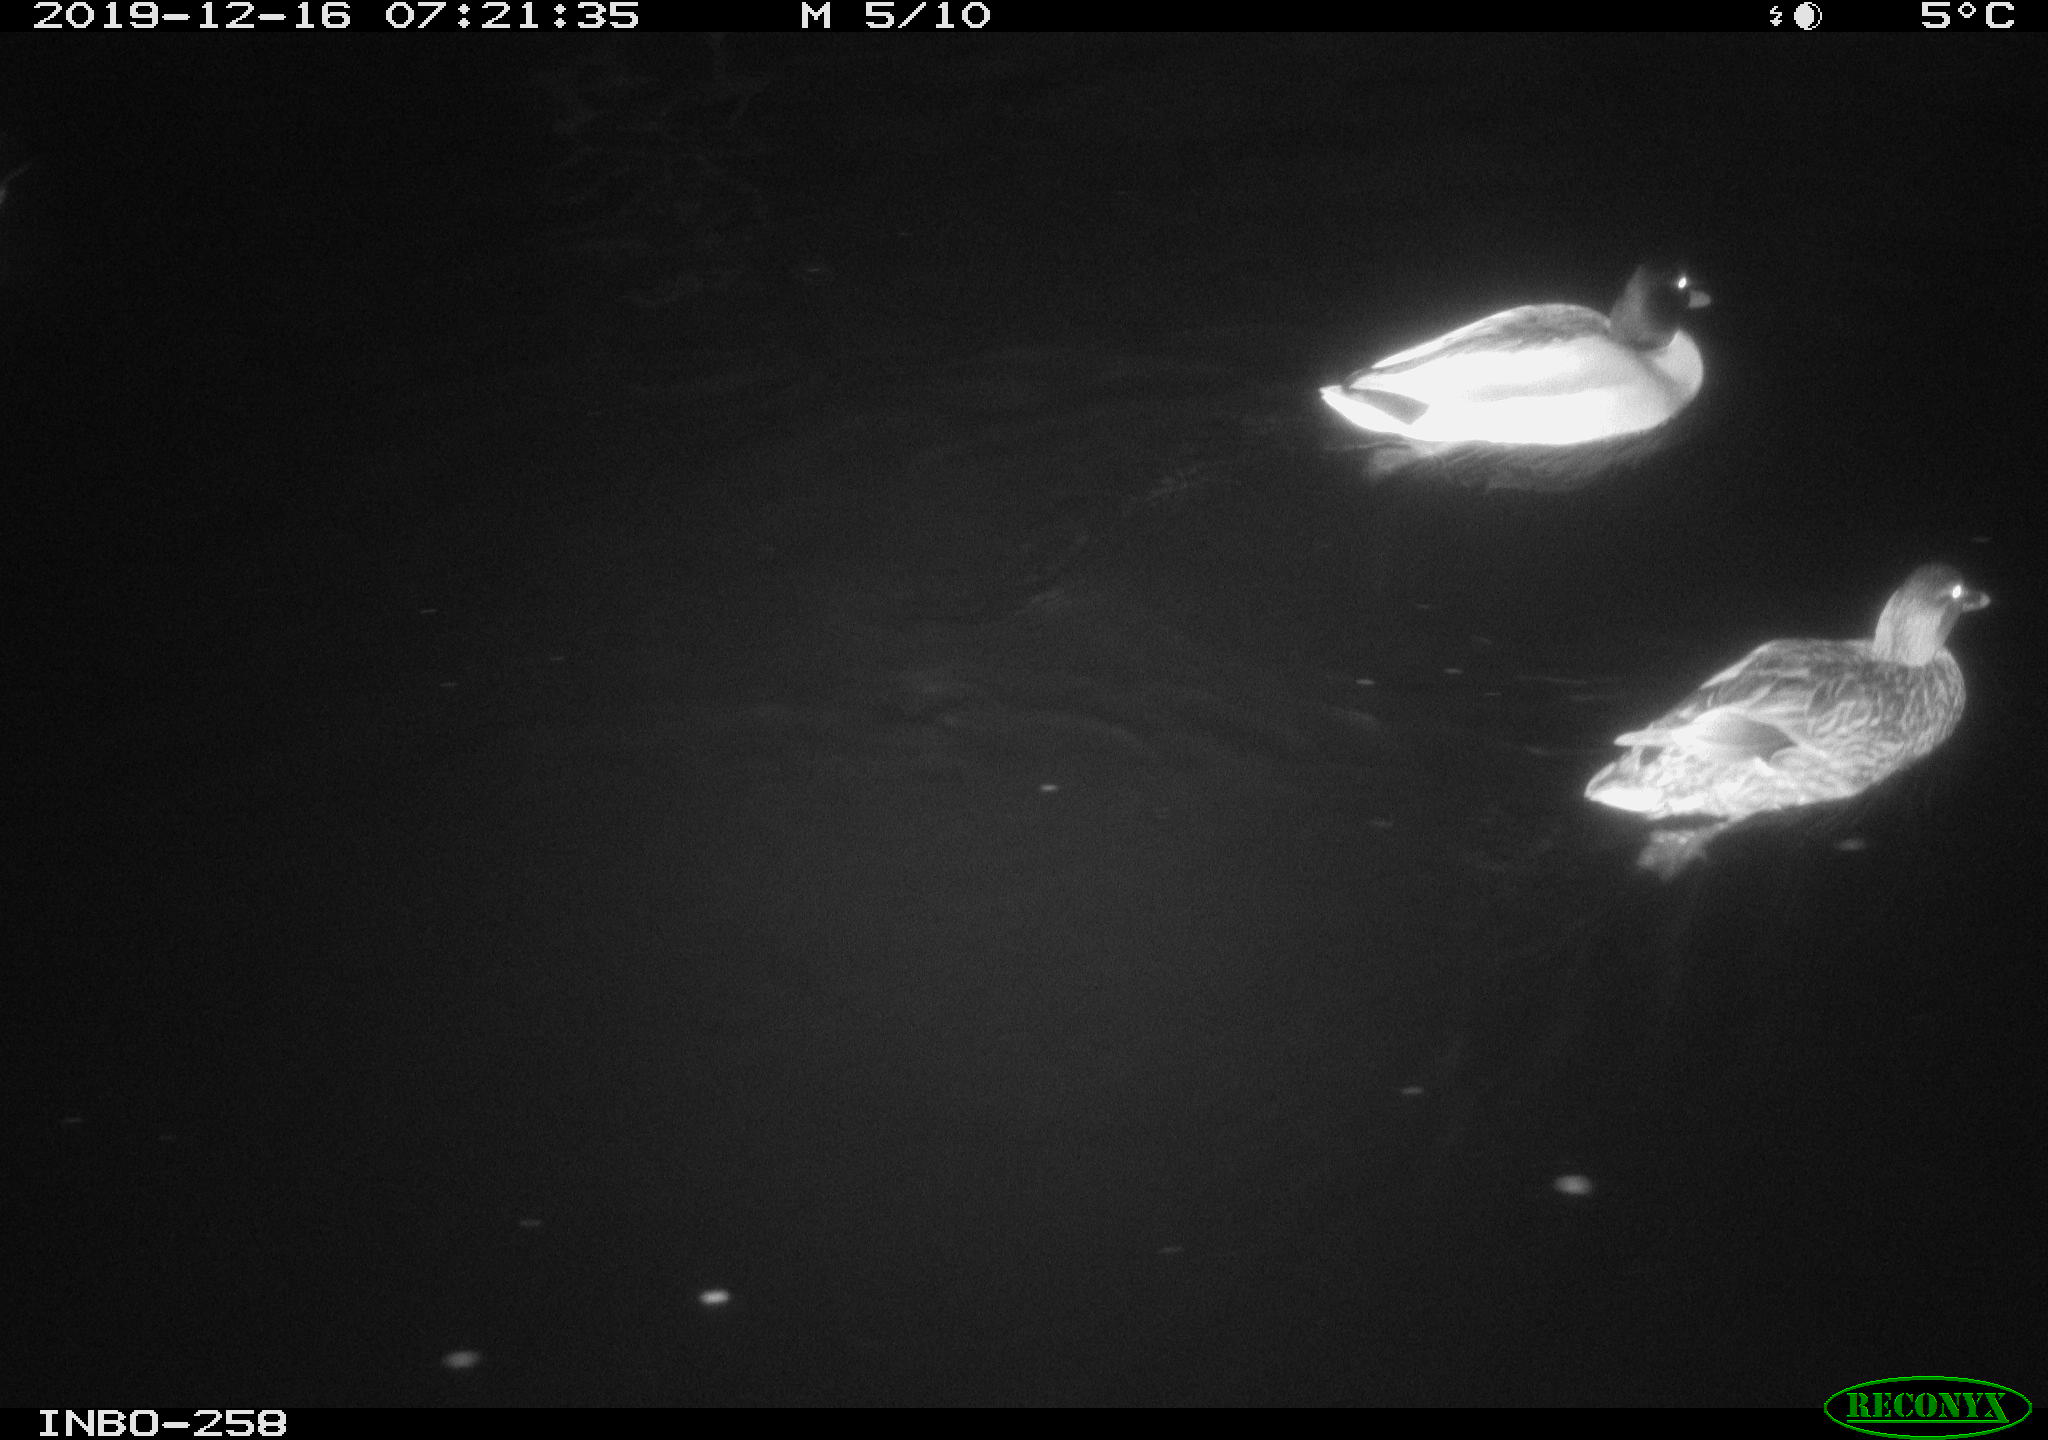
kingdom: Animalia
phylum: Chordata
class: Aves
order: Anseriformes
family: Anatidae
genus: Anas
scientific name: Anas platyrhynchos
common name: Mallard
